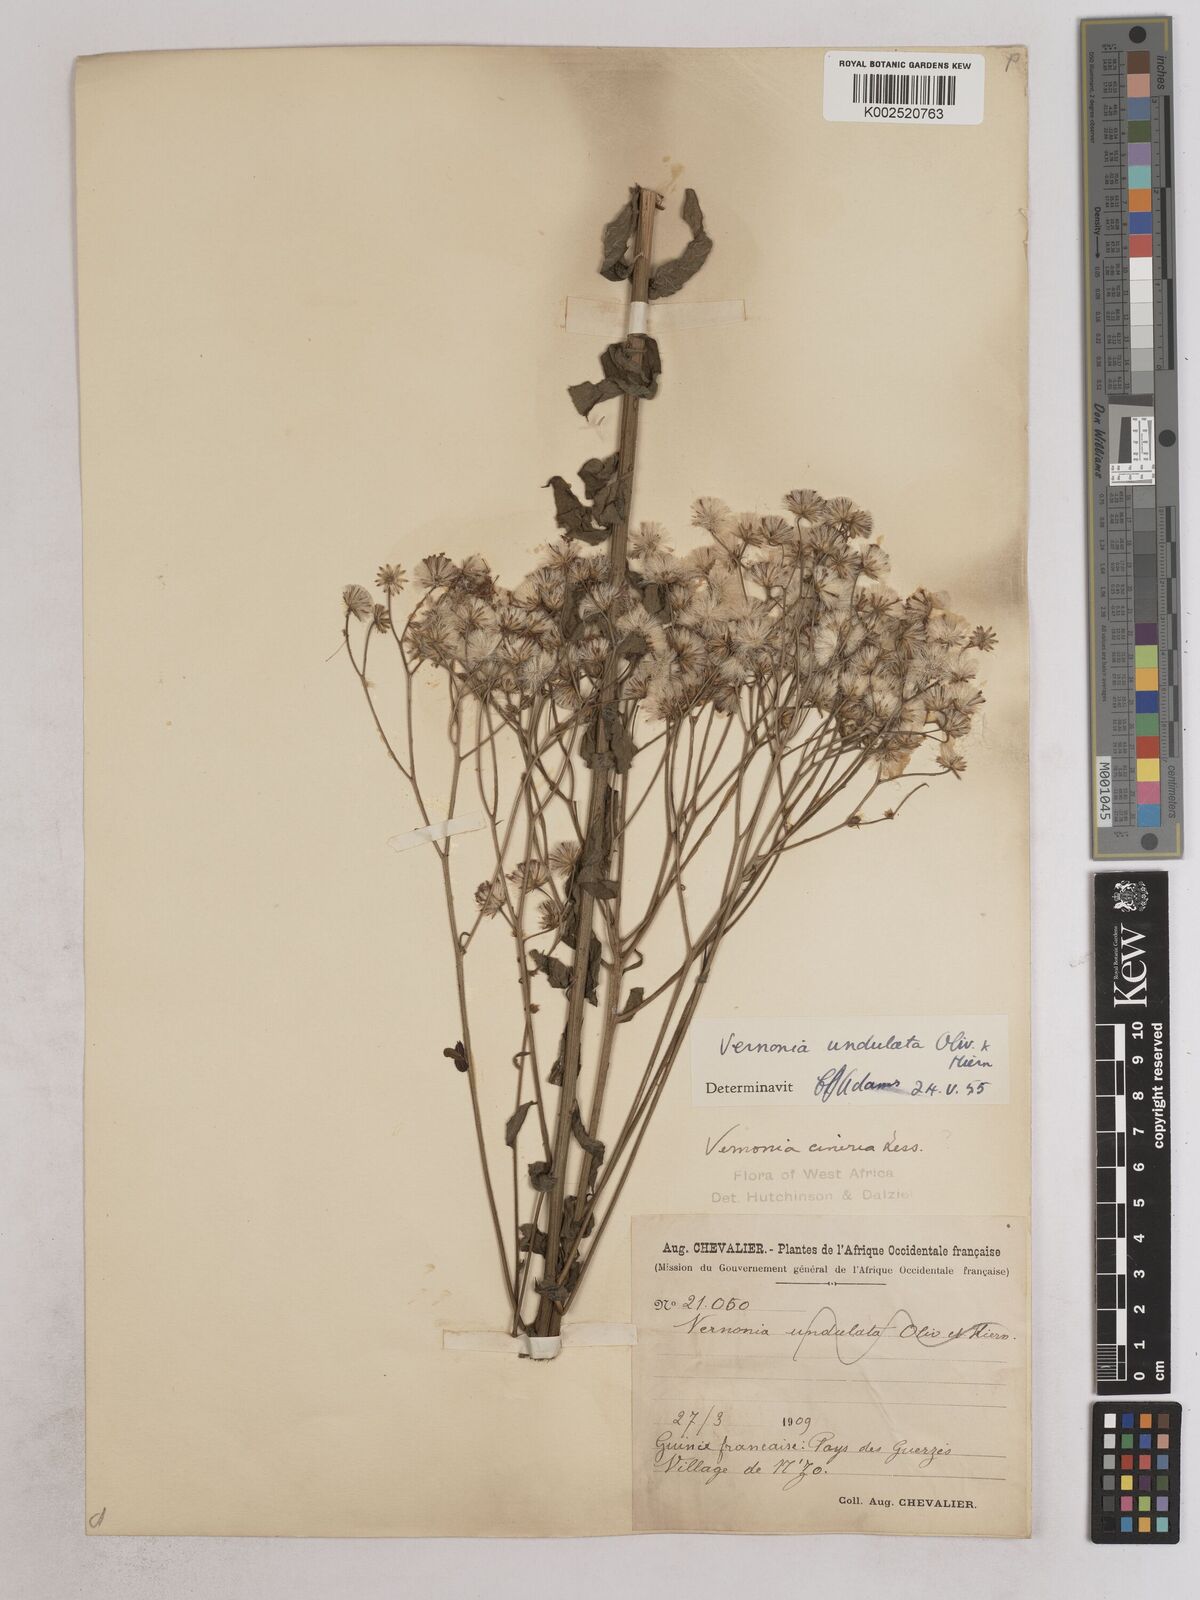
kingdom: Plantae
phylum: Tracheophyta
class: Magnoliopsida
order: Asterales
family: Asteraceae
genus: Vernonia
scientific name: Vernonia golungensis
